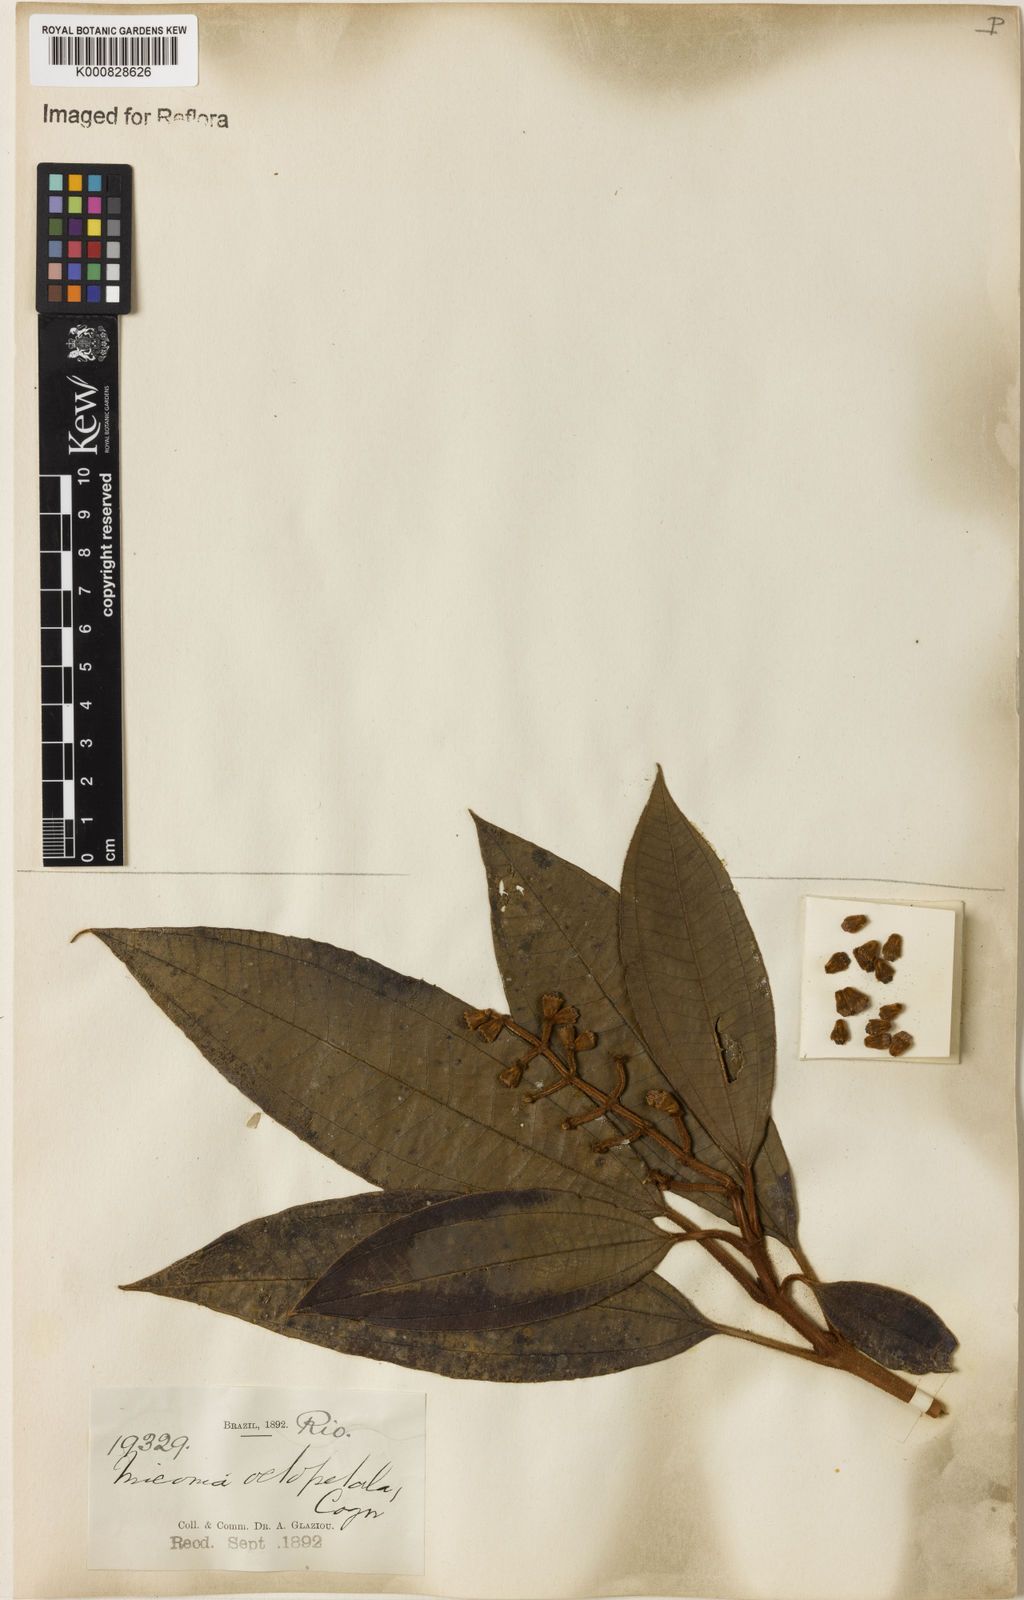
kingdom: Plantae
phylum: Tracheophyta
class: Magnoliopsida
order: Myrtales
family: Melastomataceae
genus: Miconia
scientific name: Miconia octopetala
